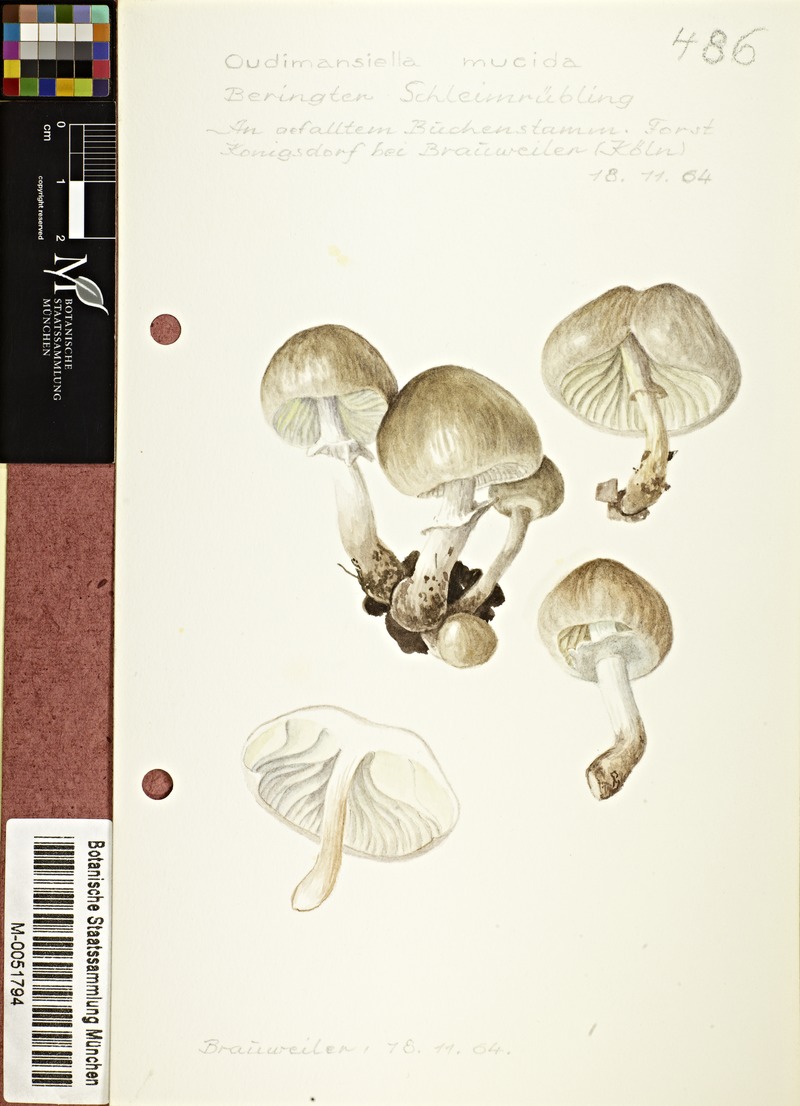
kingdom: Fungi
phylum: Basidiomycota
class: Agaricomycetes
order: Agaricales
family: Physalacriaceae
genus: Mucidula
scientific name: Mucidula mucida
